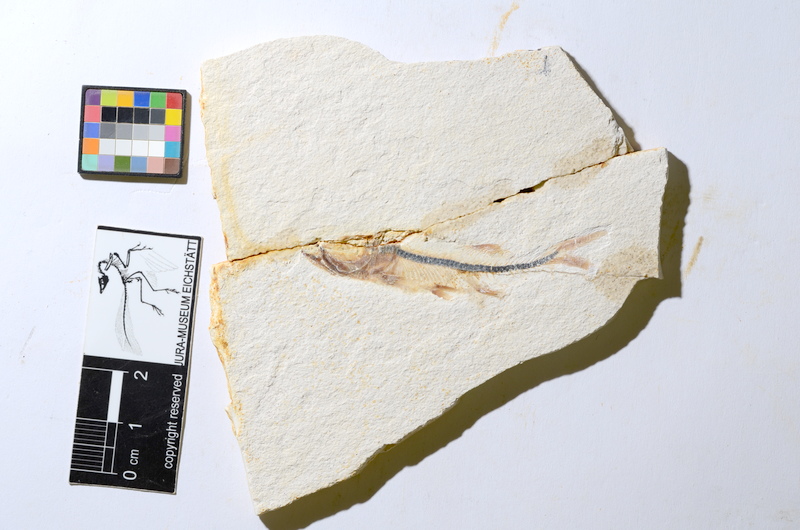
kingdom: Animalia
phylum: Chordata
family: Ascalaboidae
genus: Ebertichthys
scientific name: Ebertichthys ettlingensis
